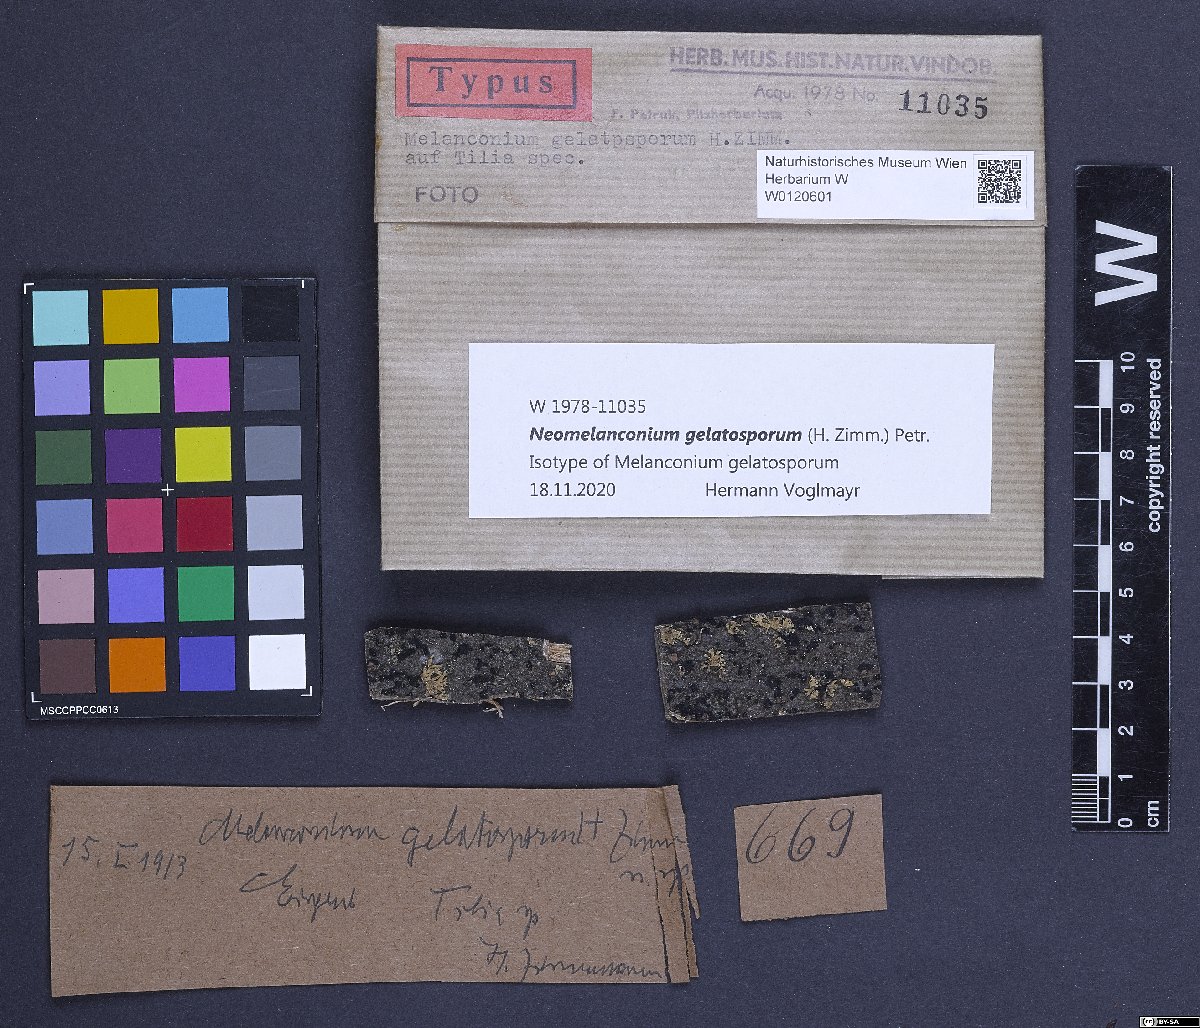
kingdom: Fungi
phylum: Ascomycota
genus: Neomelanconium
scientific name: Neomelanconium gelatosporum
